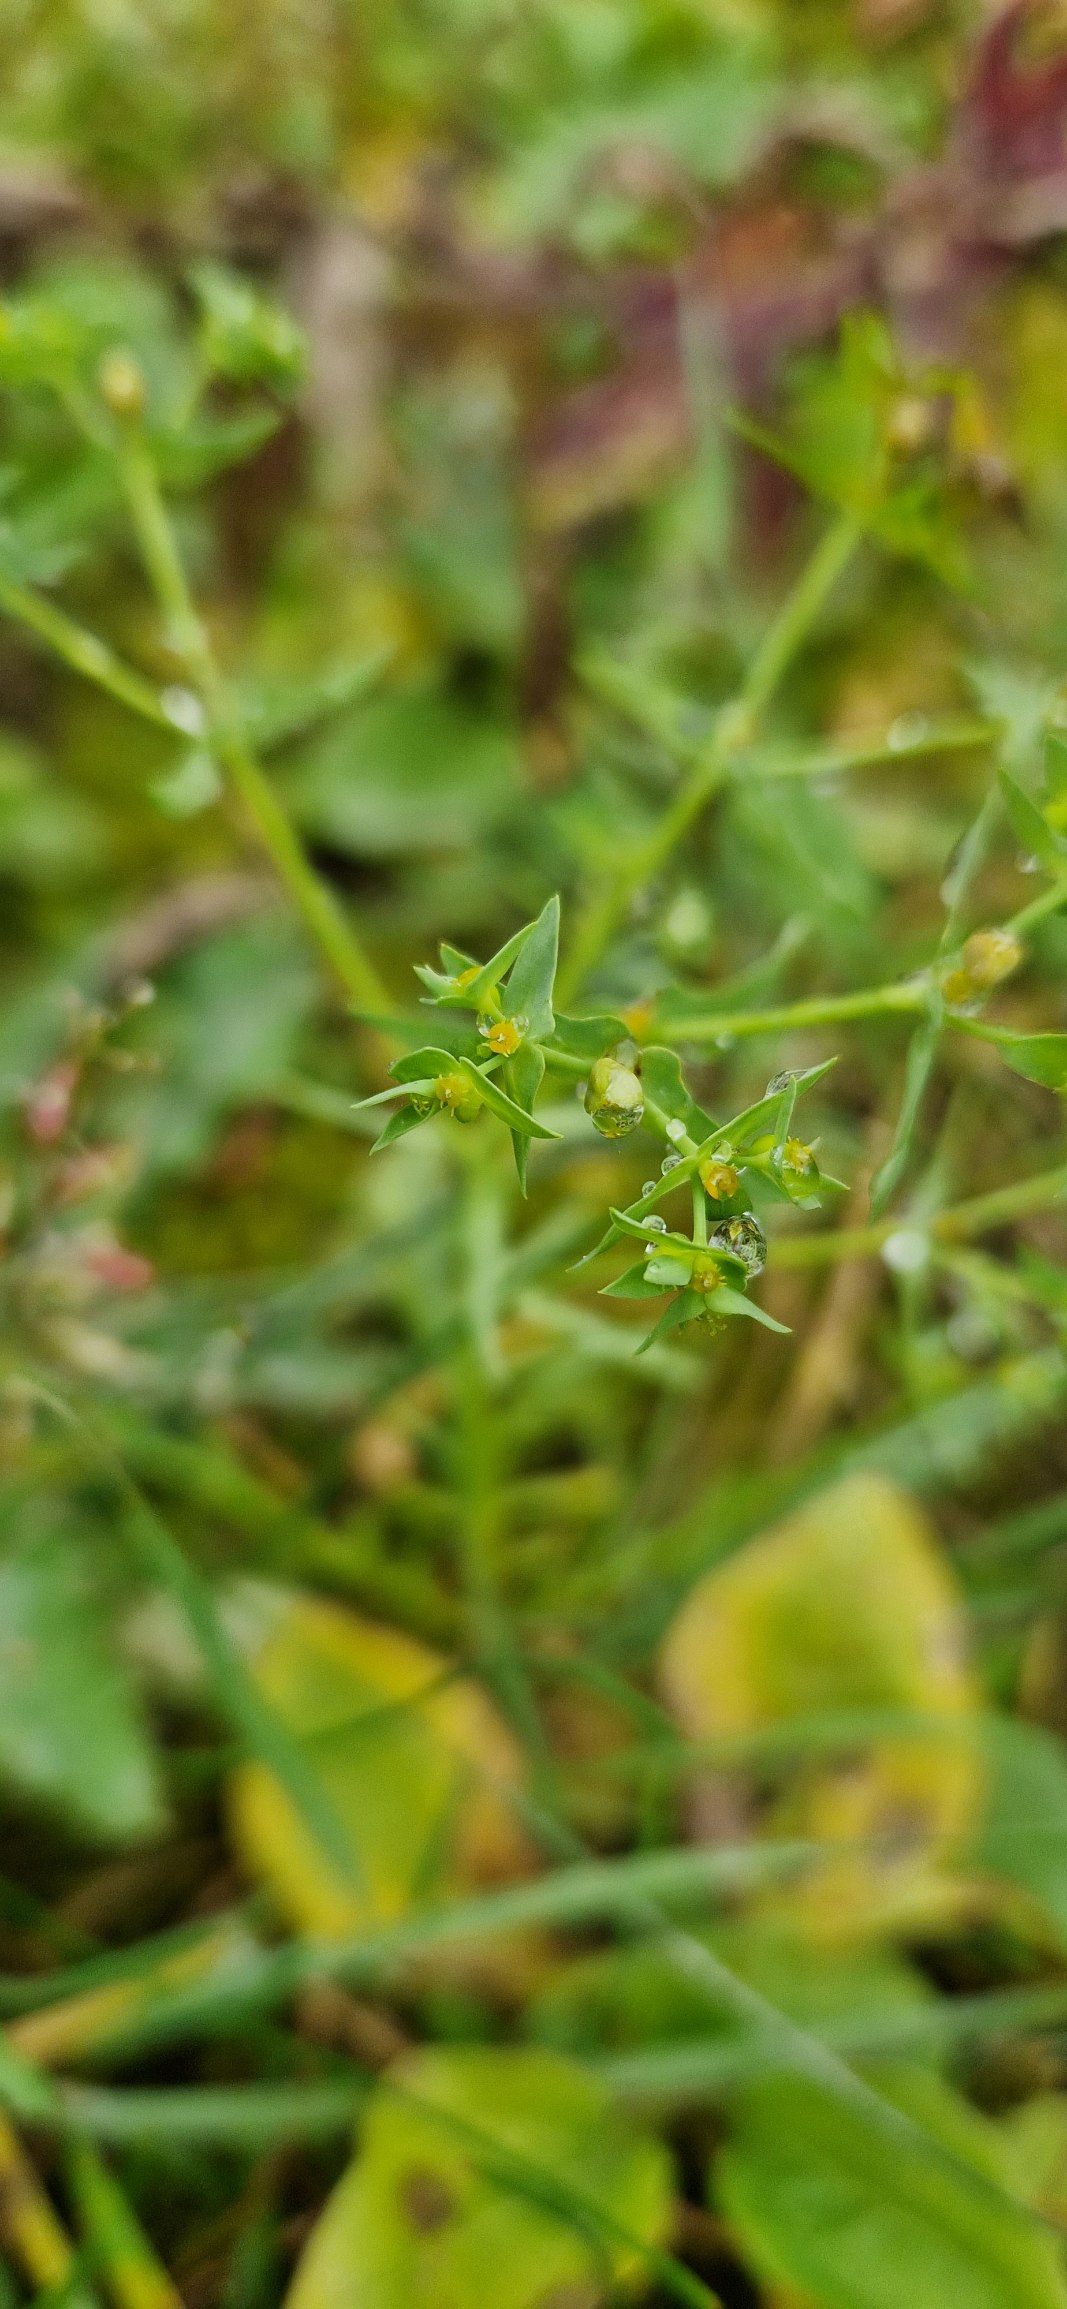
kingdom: Plantae
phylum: Tracheophyta
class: Magnoliopsida
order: Malpighiales
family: Euphorbiaceae
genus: Euphorbia
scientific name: Euphorbia exigua
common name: Liden vortemælk
